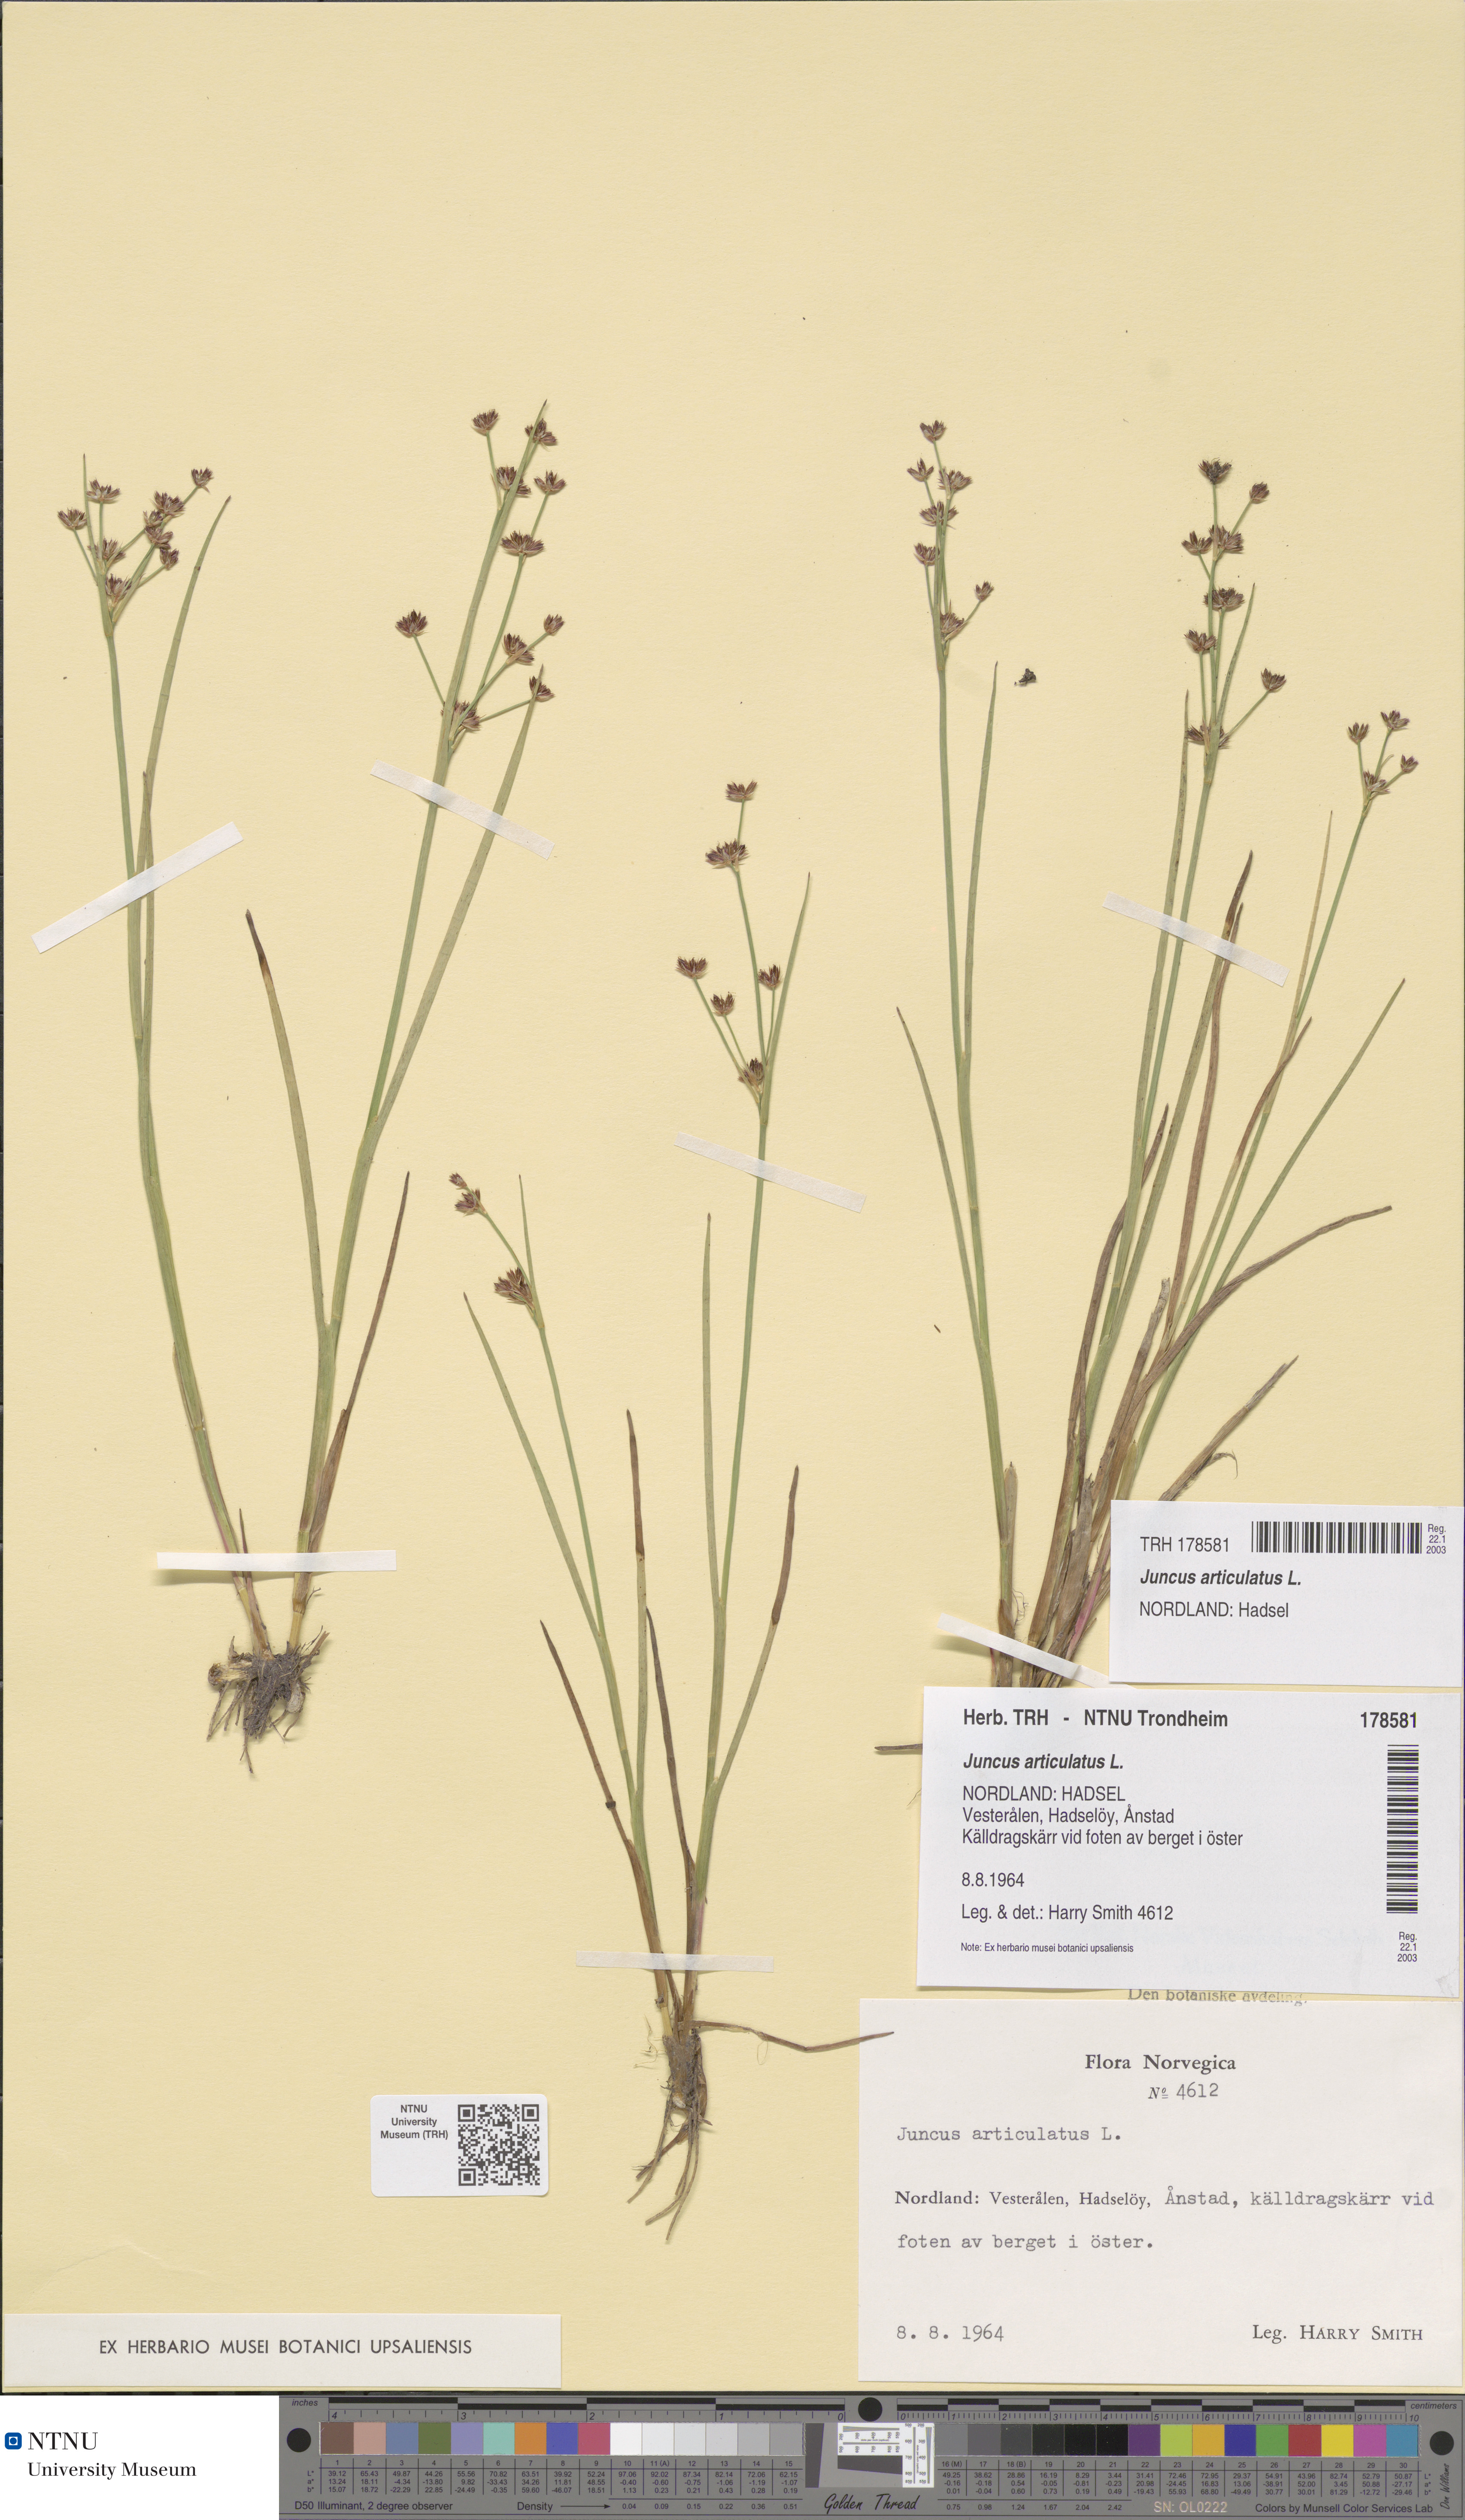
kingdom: Plantae
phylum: Tracheophyta
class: Liliopsida
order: Poales
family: Juncaceae
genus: Juncus
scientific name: Juncus articulatus
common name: Jointed rush
